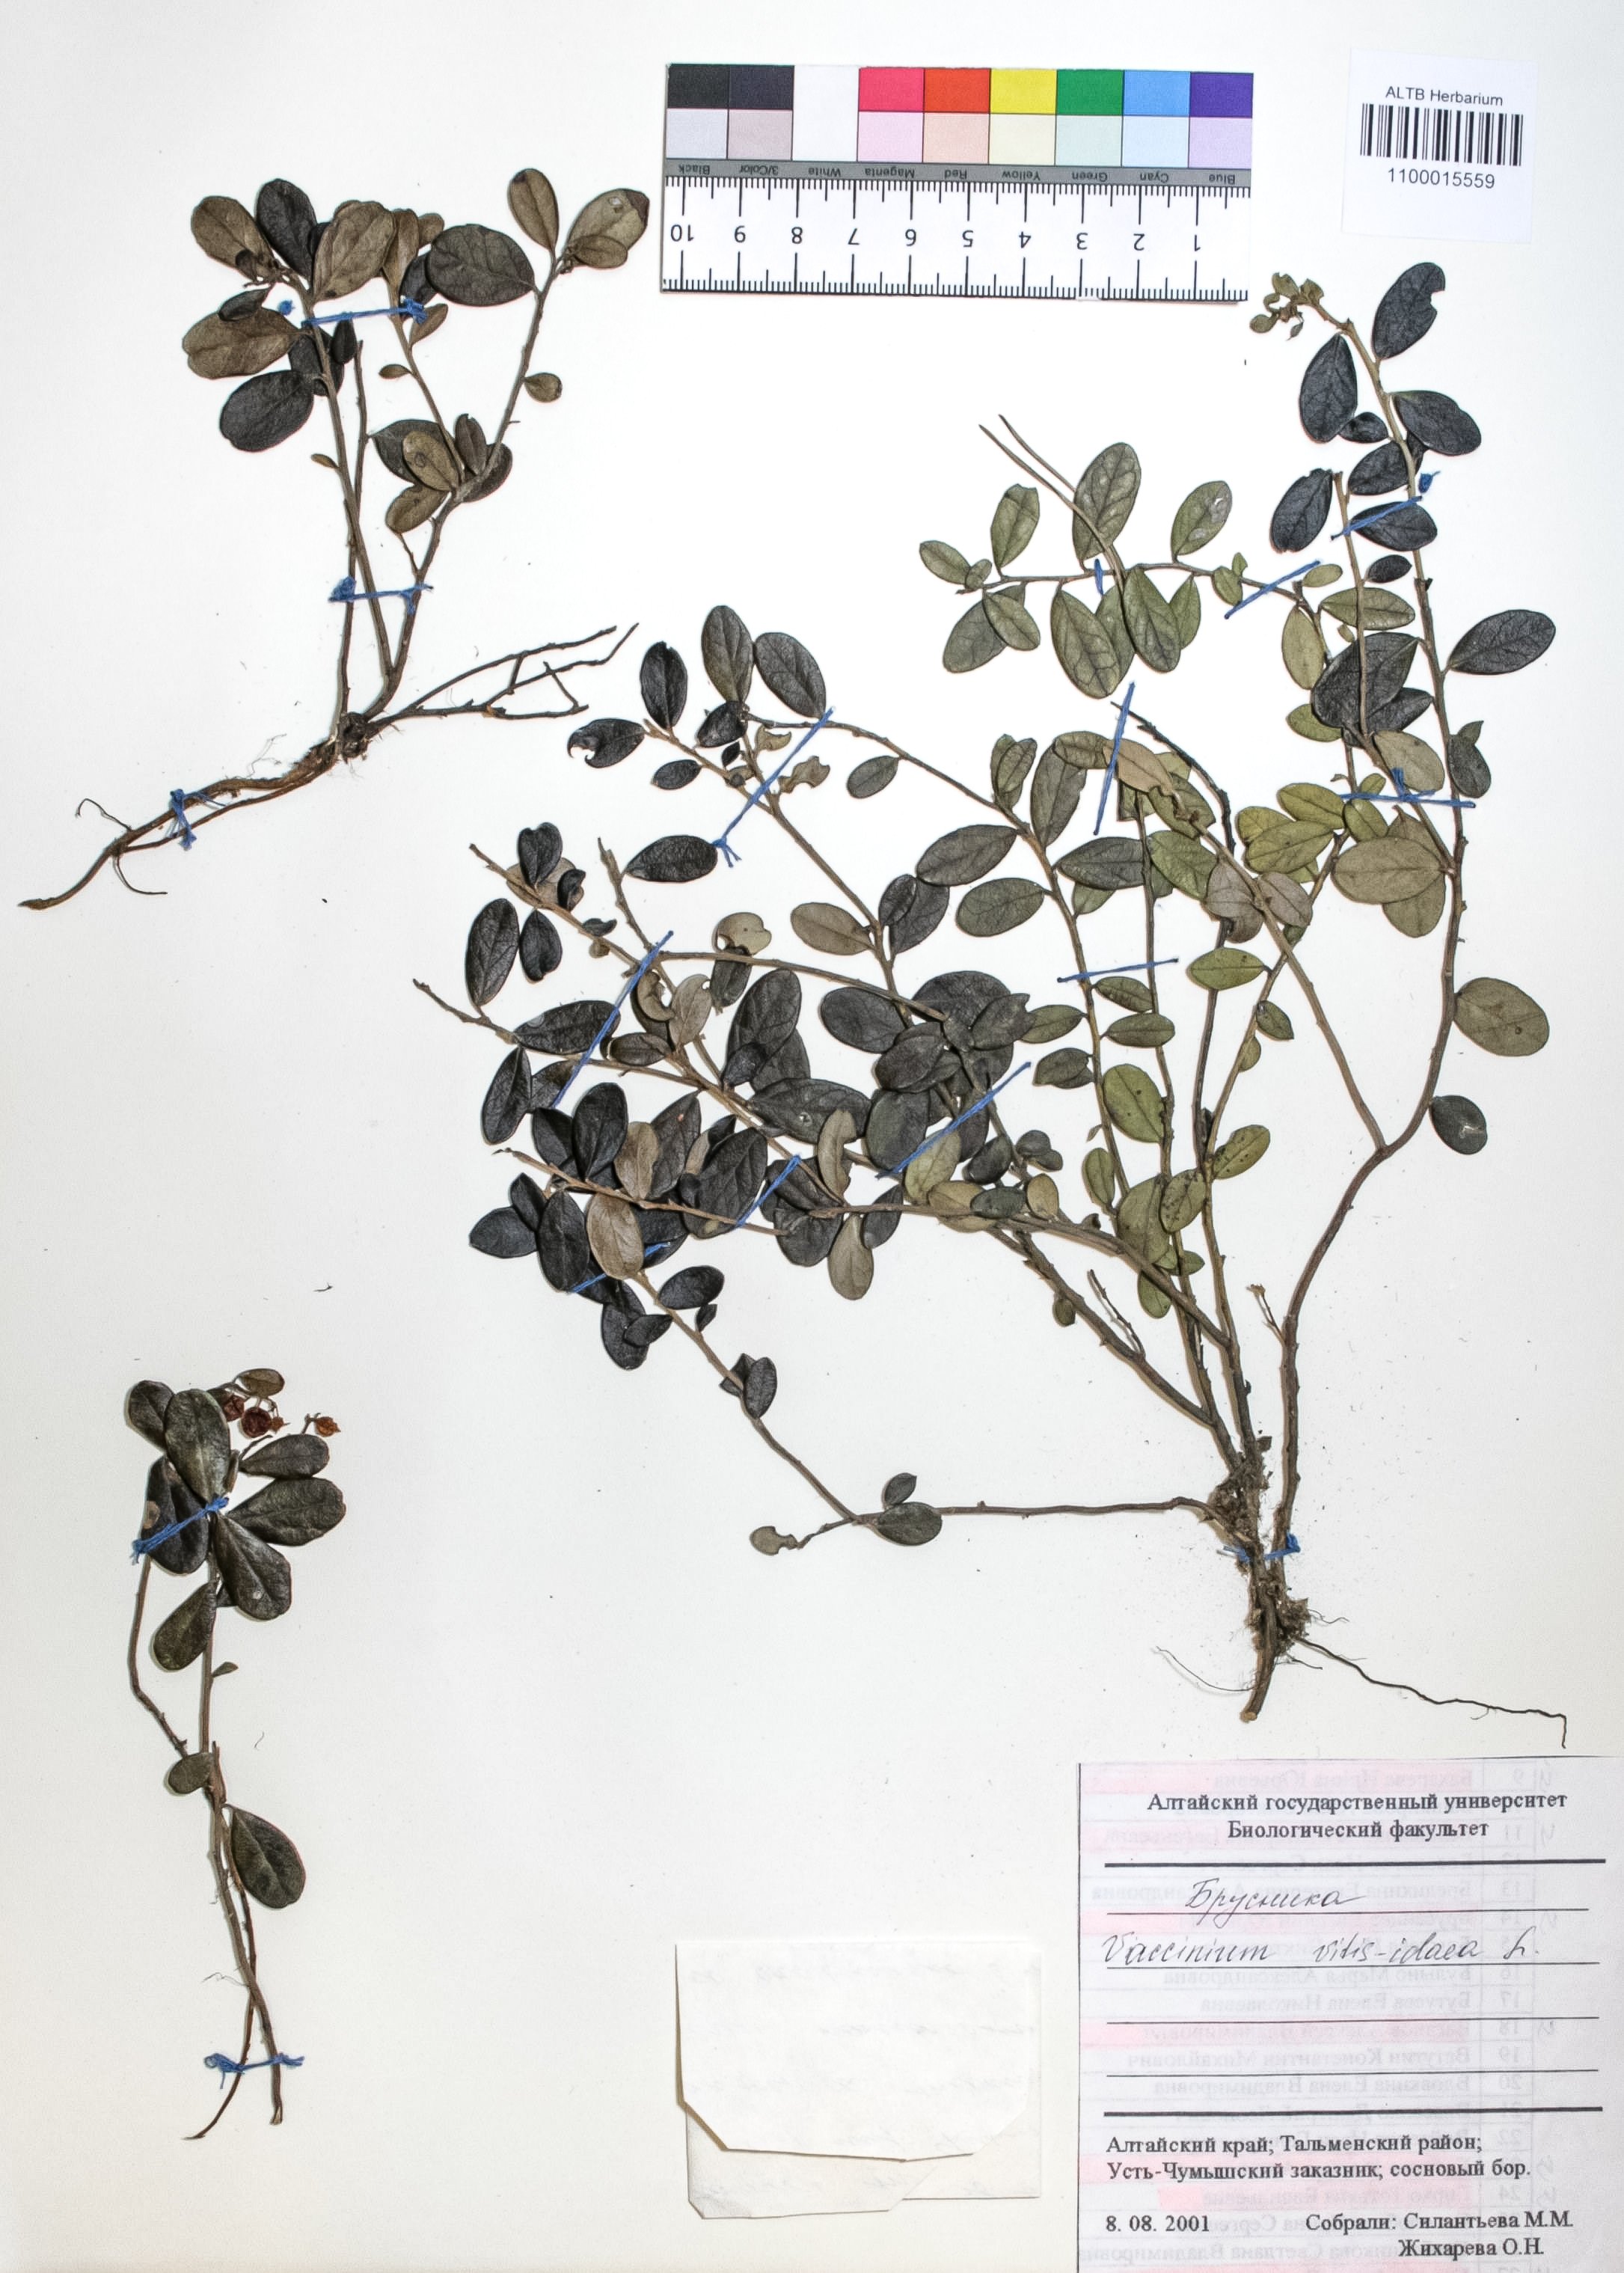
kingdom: Plantae
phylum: Tracheophyta
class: Magnoliopsida
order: Ericales
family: Ericaceae
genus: Vaccinium
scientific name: Vaccinium vitis-idaea
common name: Cowberry
